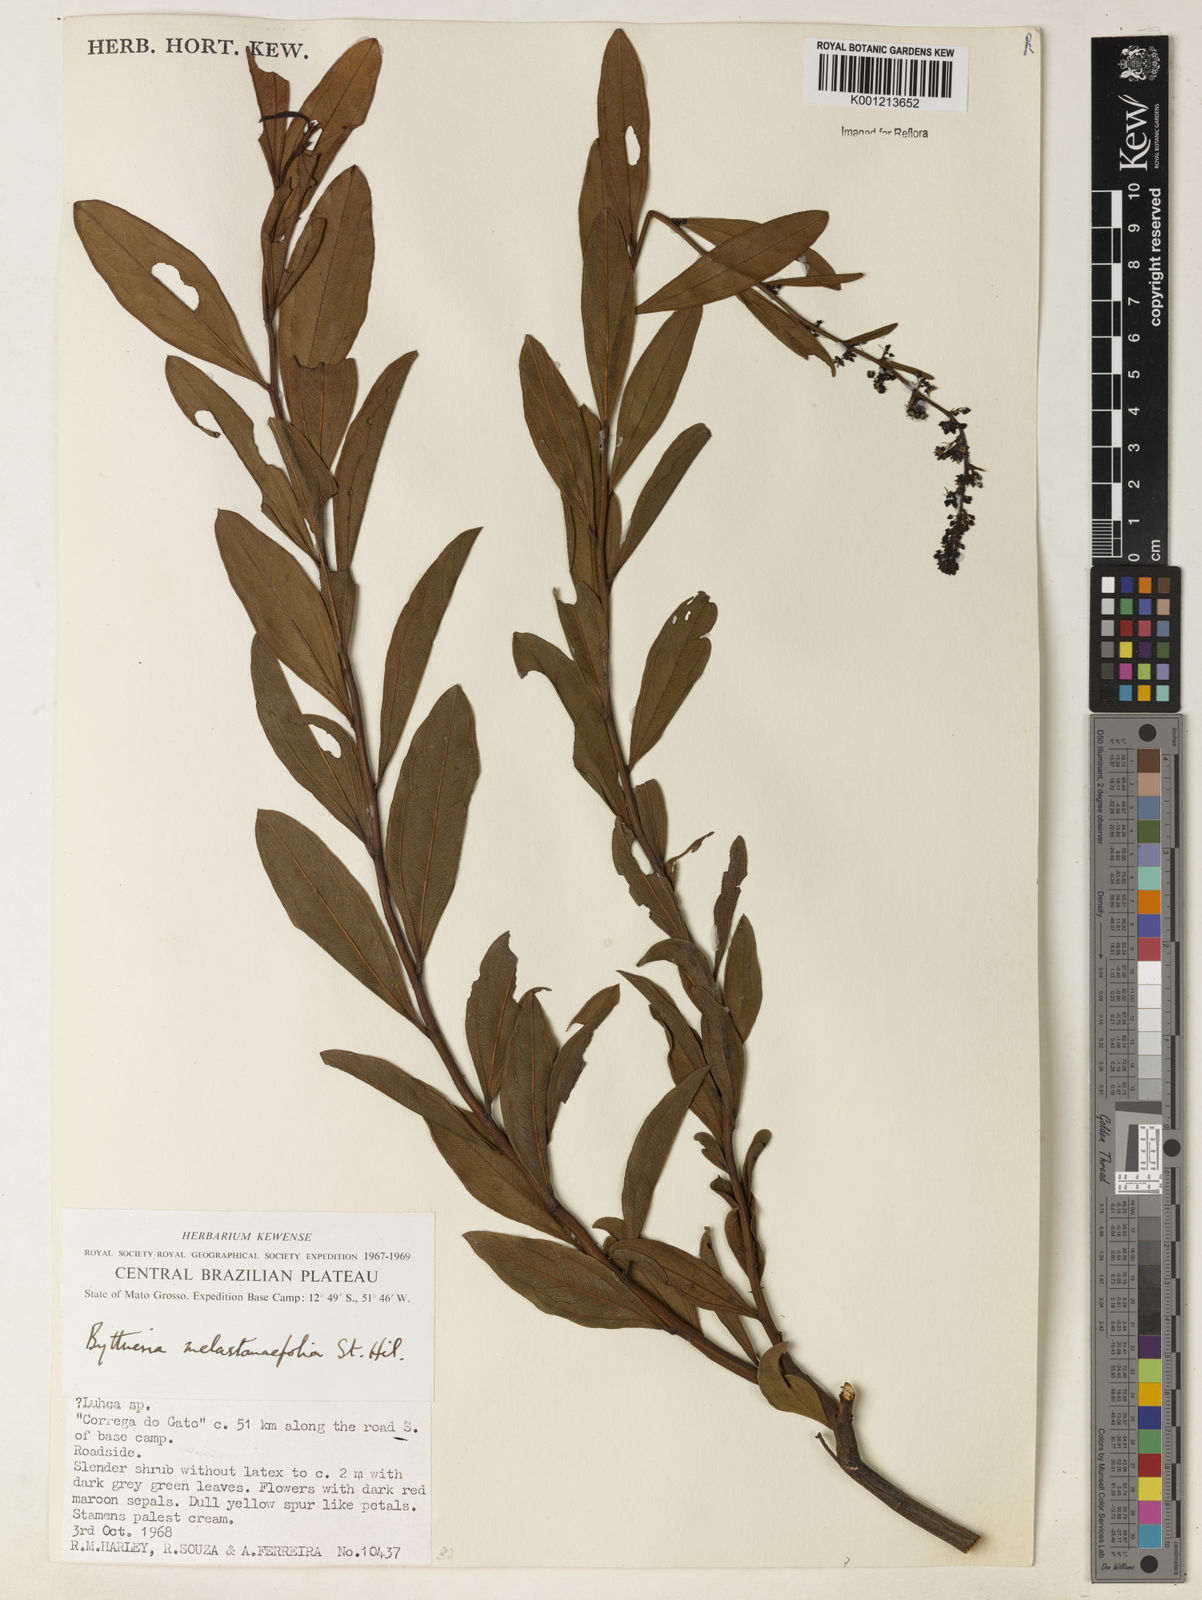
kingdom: Plantae
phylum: Tracheophyta
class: Magnoliopsida
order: Malvales
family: Malvaceae
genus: Byttneria
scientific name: Byttneria melastomifolia
